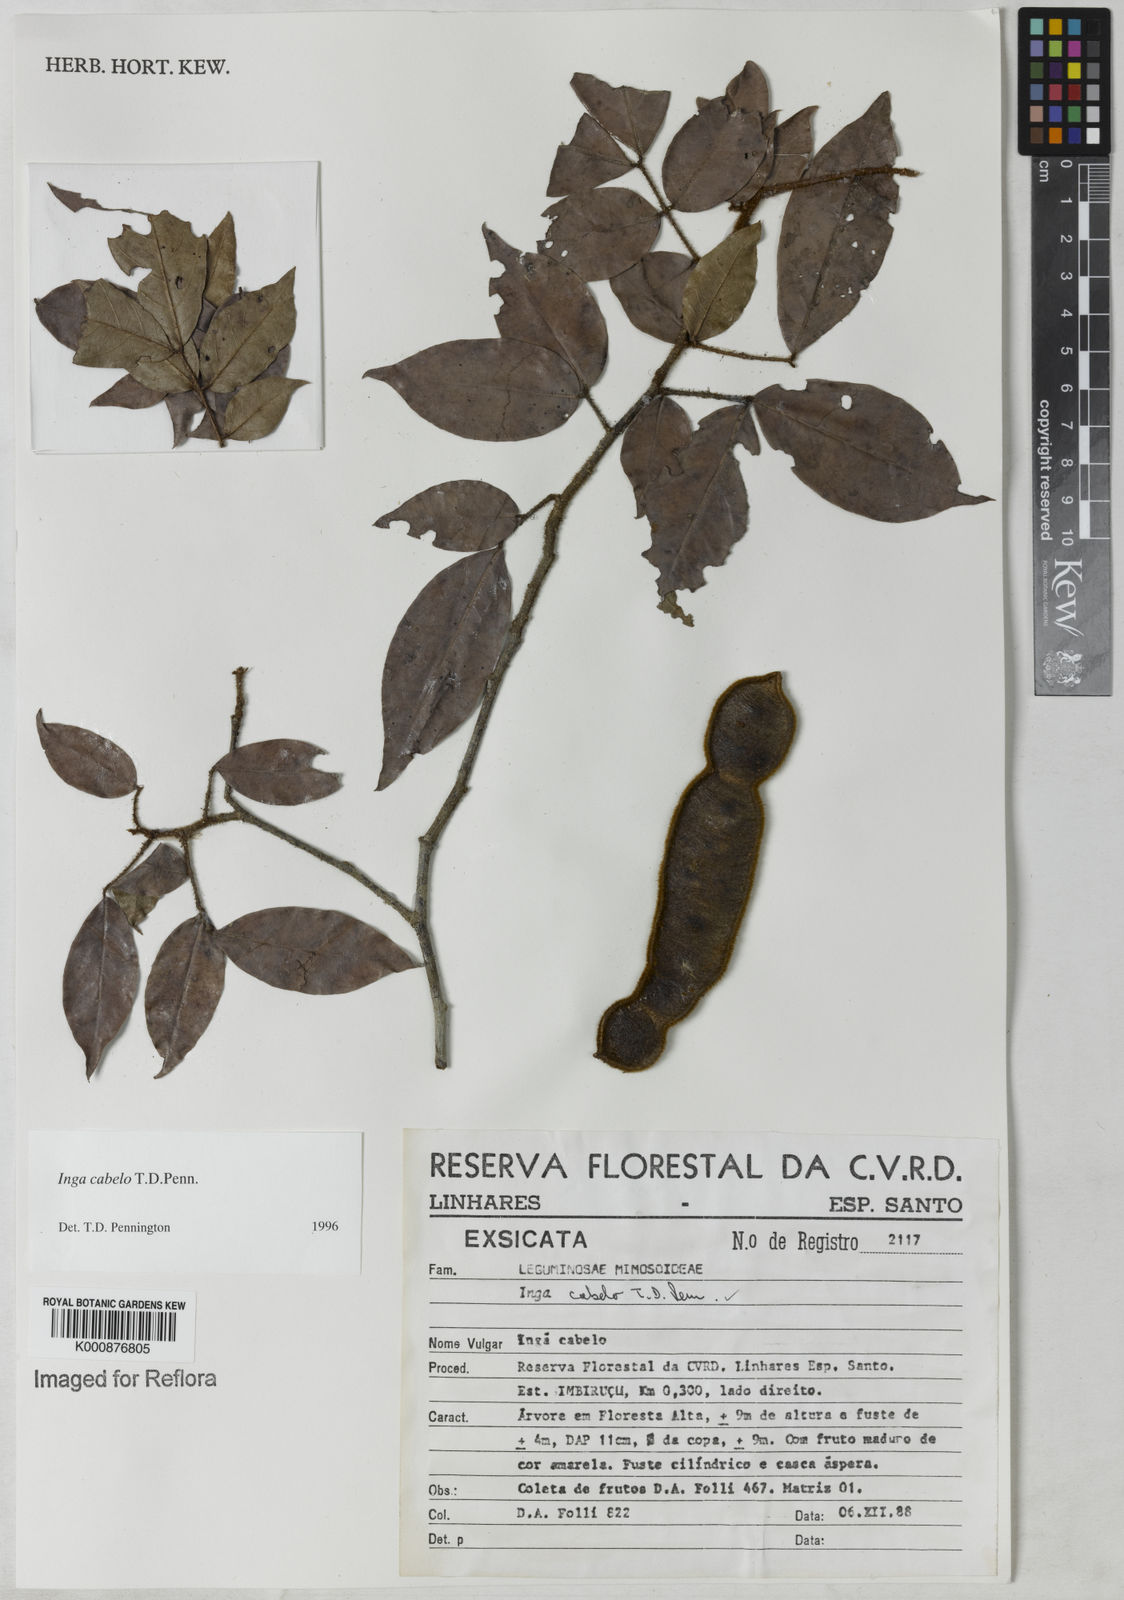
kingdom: Plantae
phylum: Tracheophyta
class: Magnoliopsida
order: Fabales
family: Fabaceae
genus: Inga
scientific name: Inga cabelo
